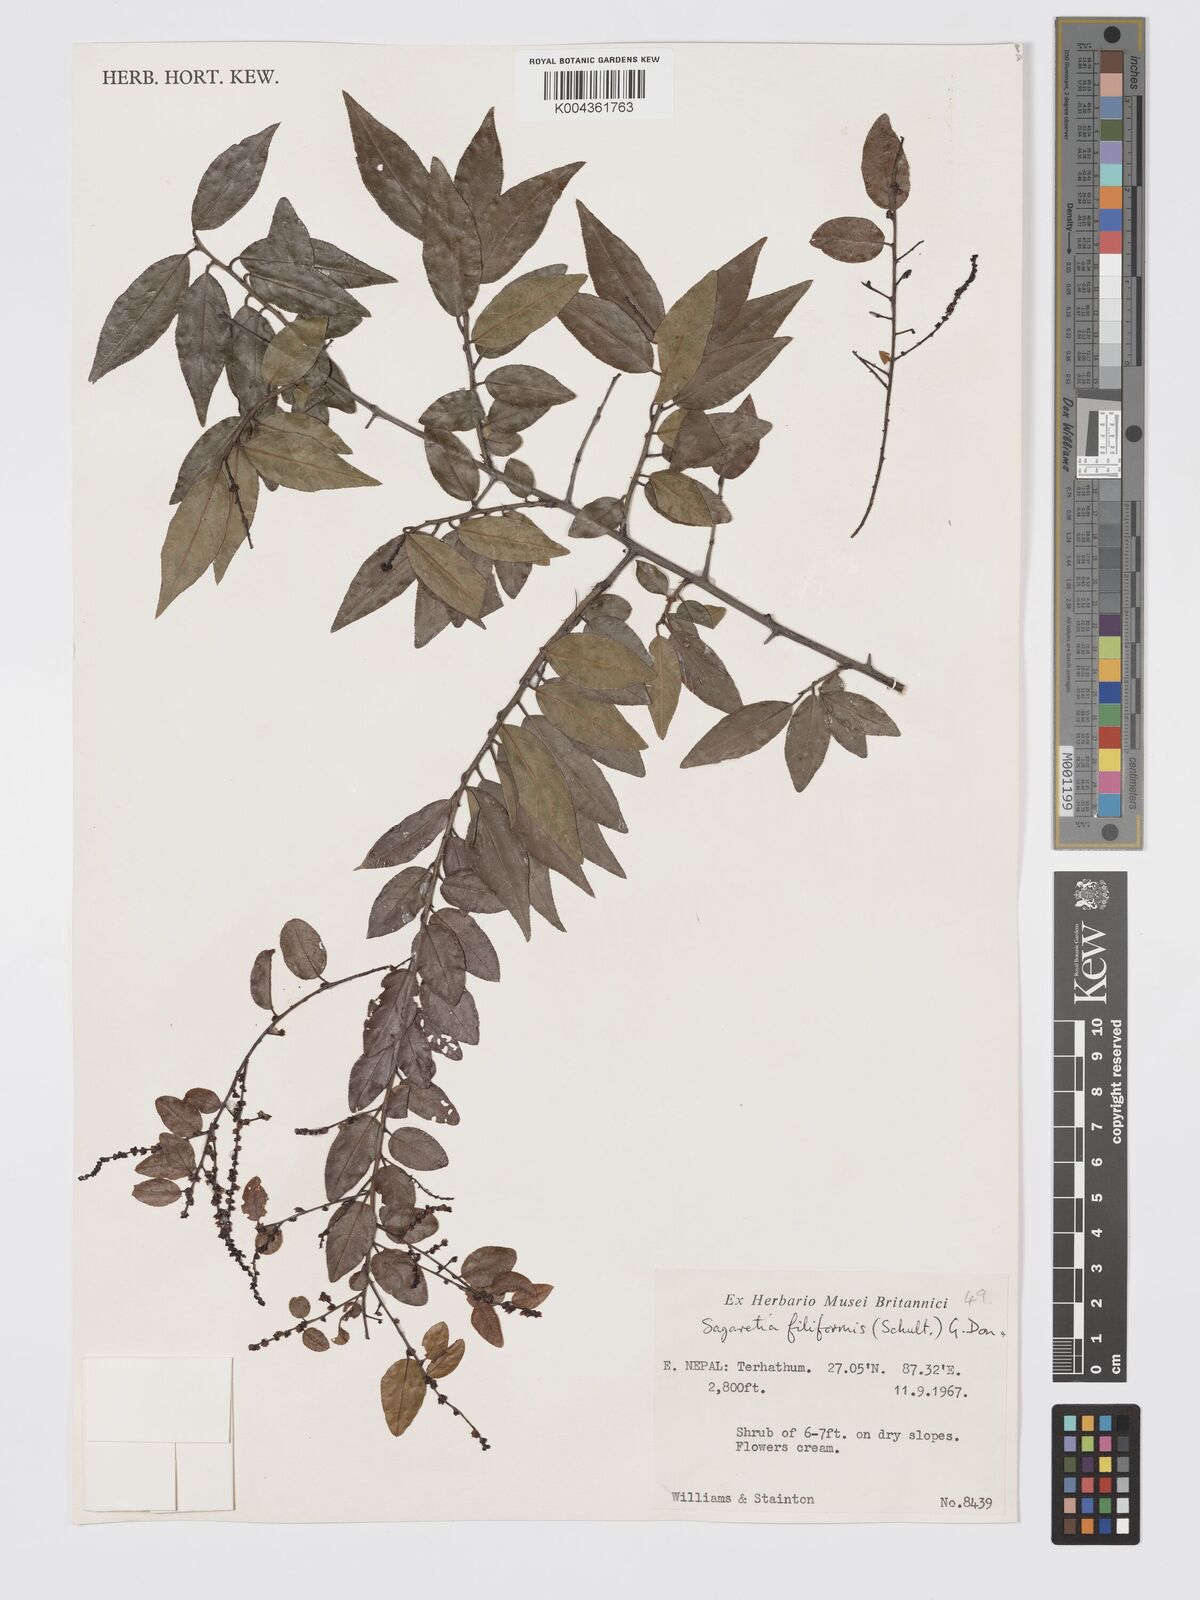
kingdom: Plantae
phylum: Tracheophyta
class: Magnoliopsida
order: Rosales
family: Rhamnaceae
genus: Sageretia
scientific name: Sageretia filiformis
